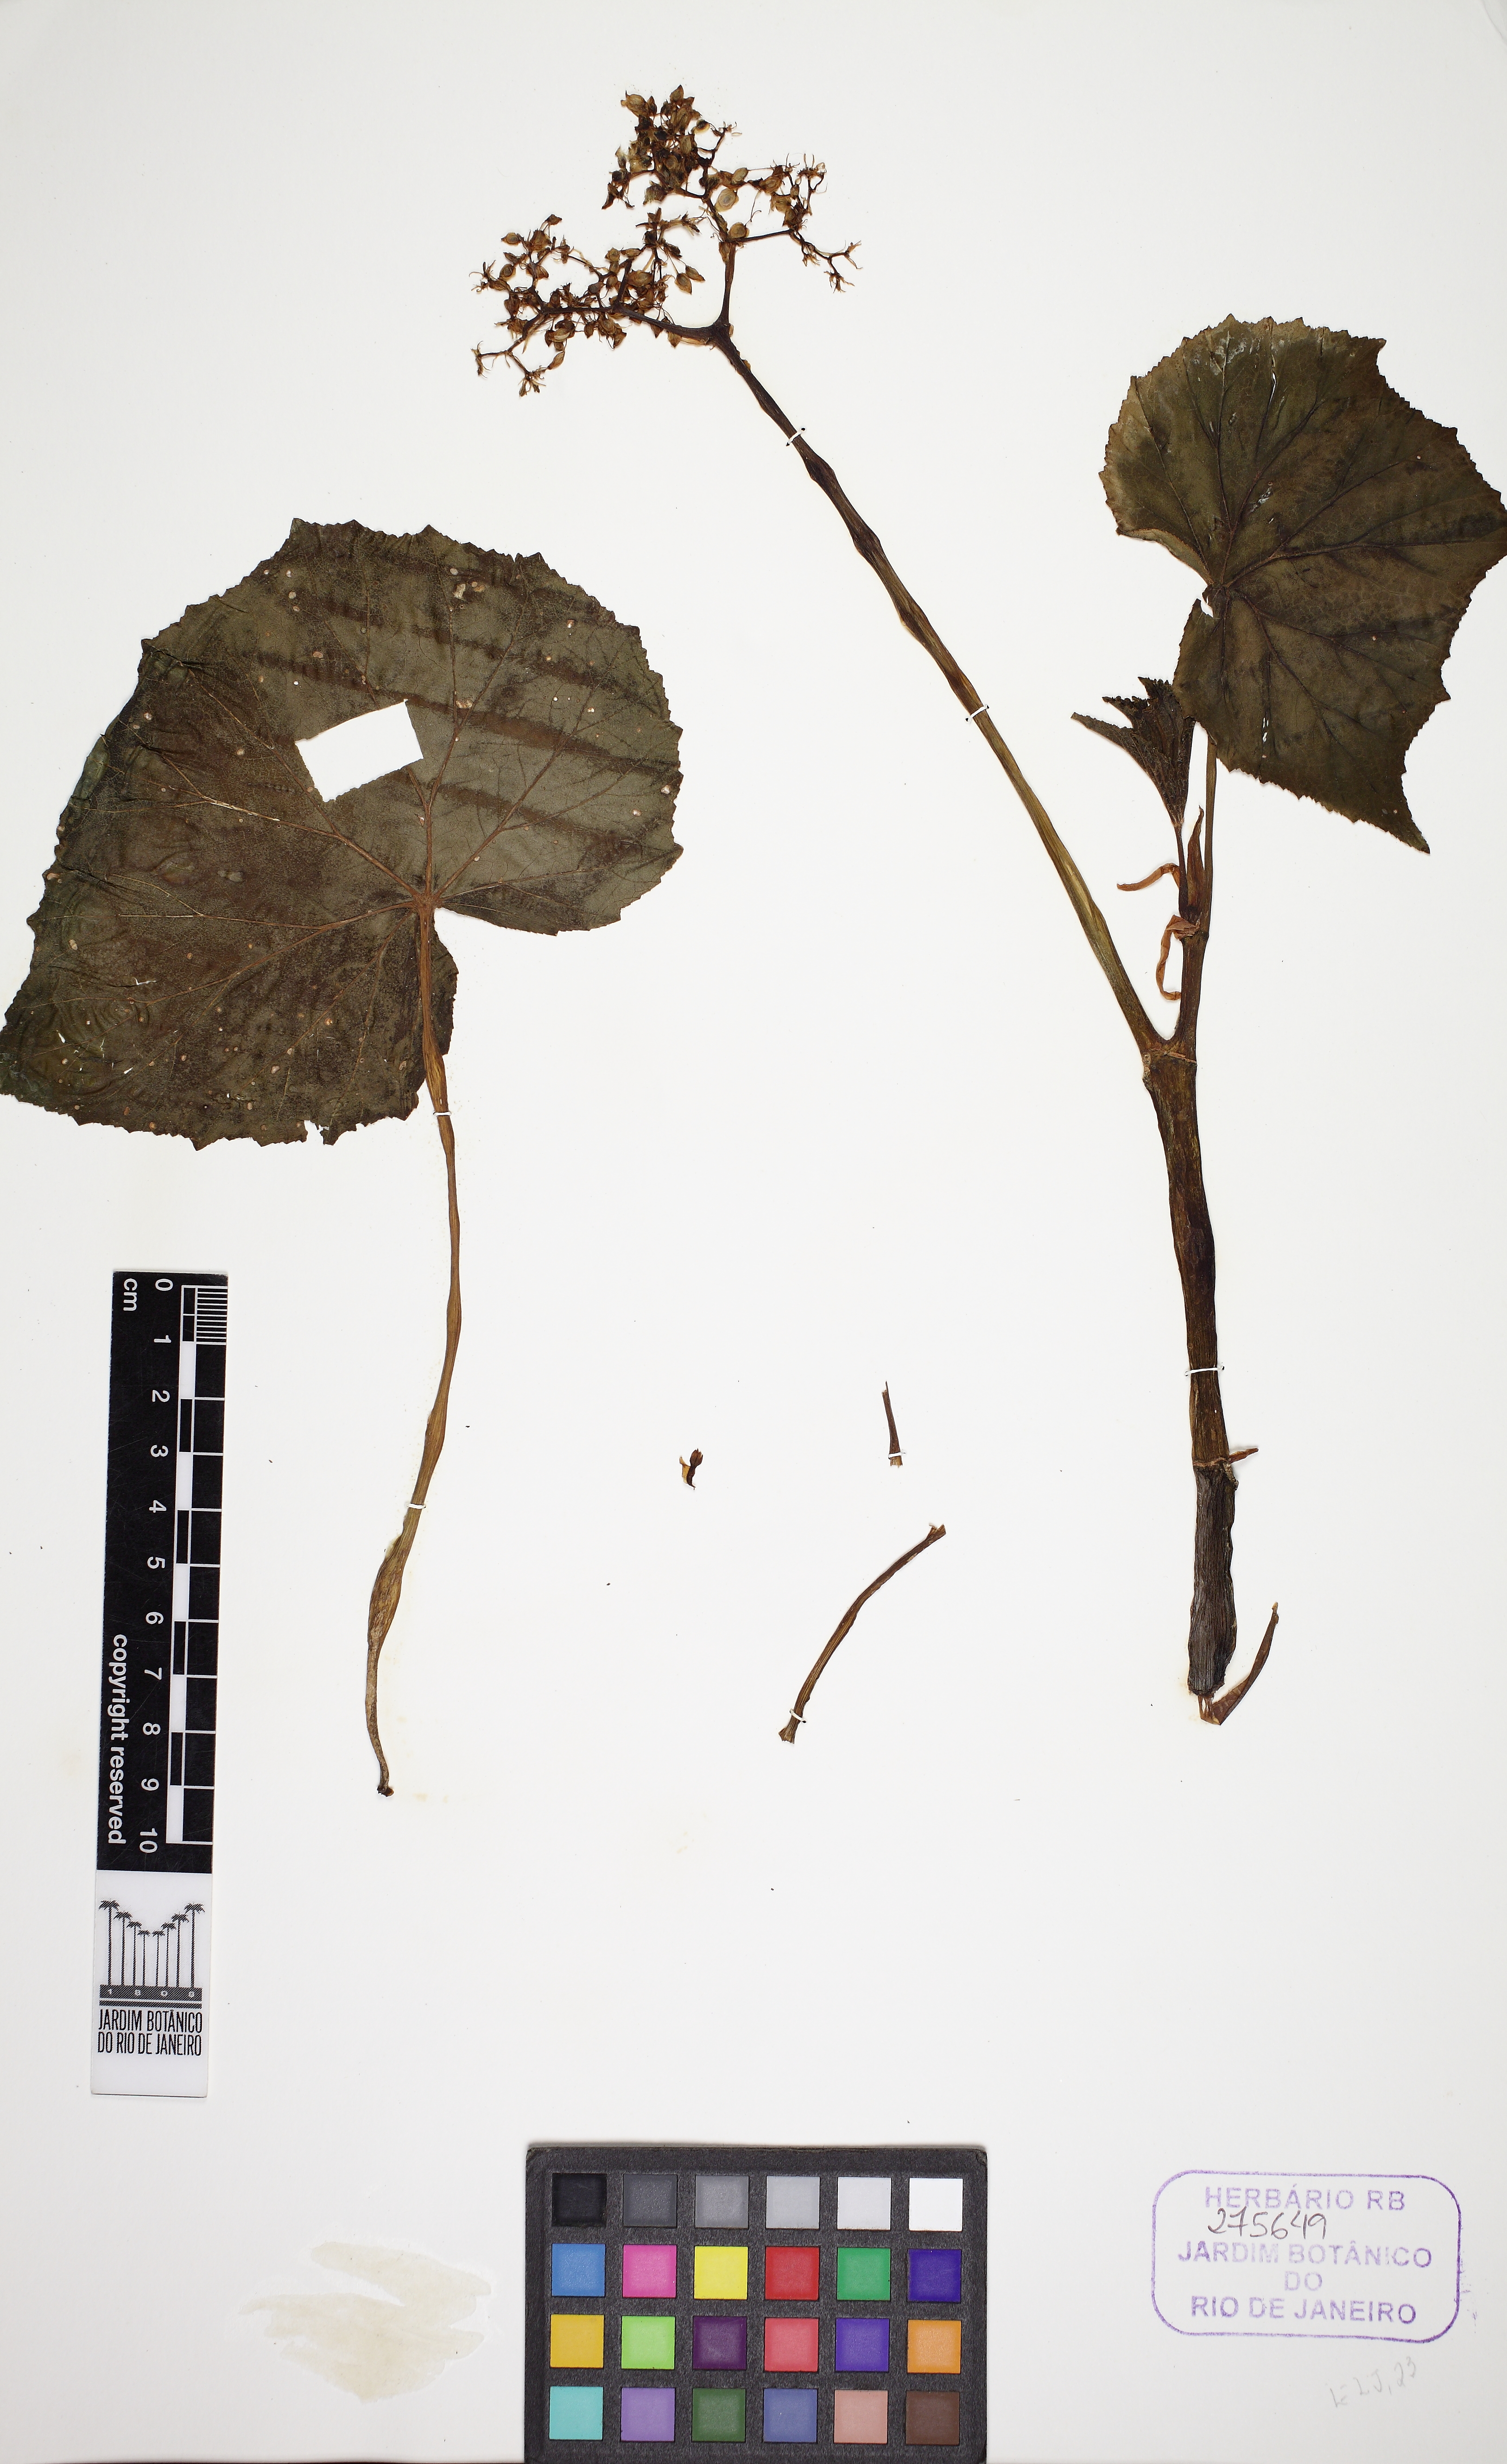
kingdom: Plantae
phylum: Tracheophyta
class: Magnoliopsida
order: Cucurbitales
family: Begoniaceae
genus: Begonia
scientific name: Begonia reniformis
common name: Grapeleaf begonia
